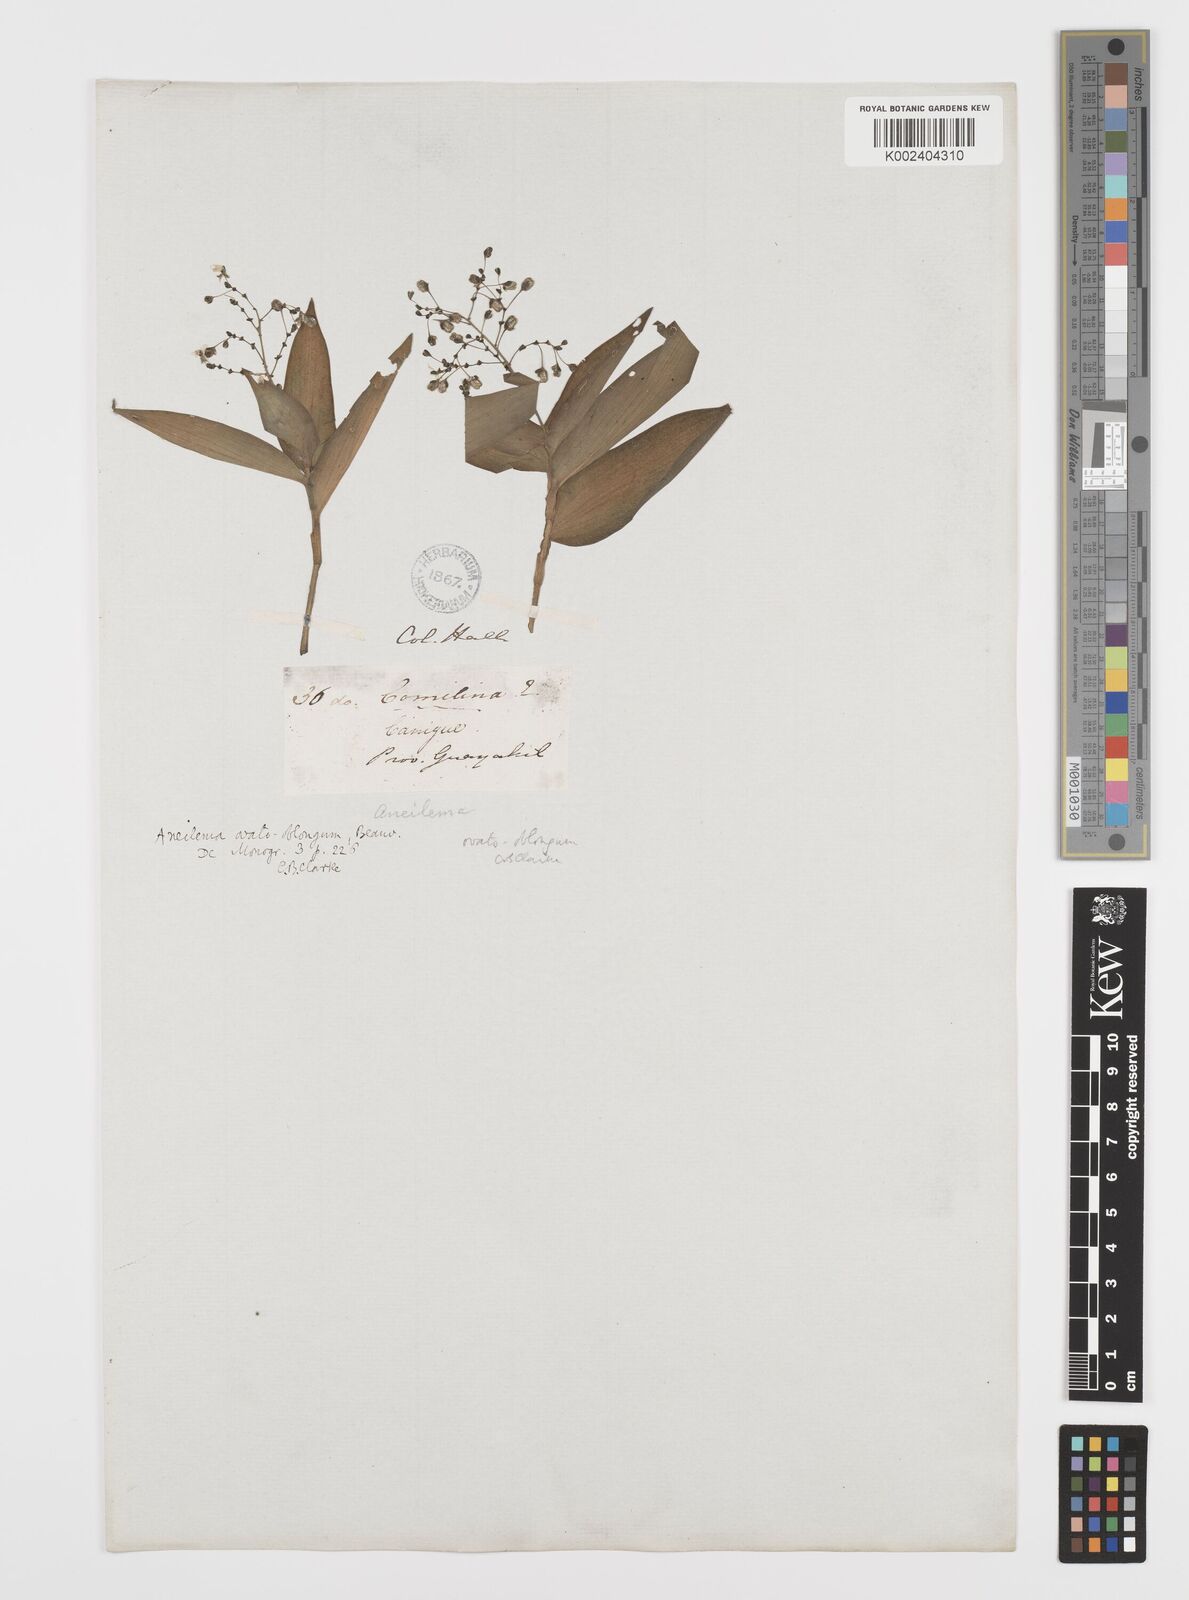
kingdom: Plantae
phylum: Tracheophyta
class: Liliopsida
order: Commelinales
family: Commelinaceae
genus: Aneilema
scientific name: Aneilema umbrosum
